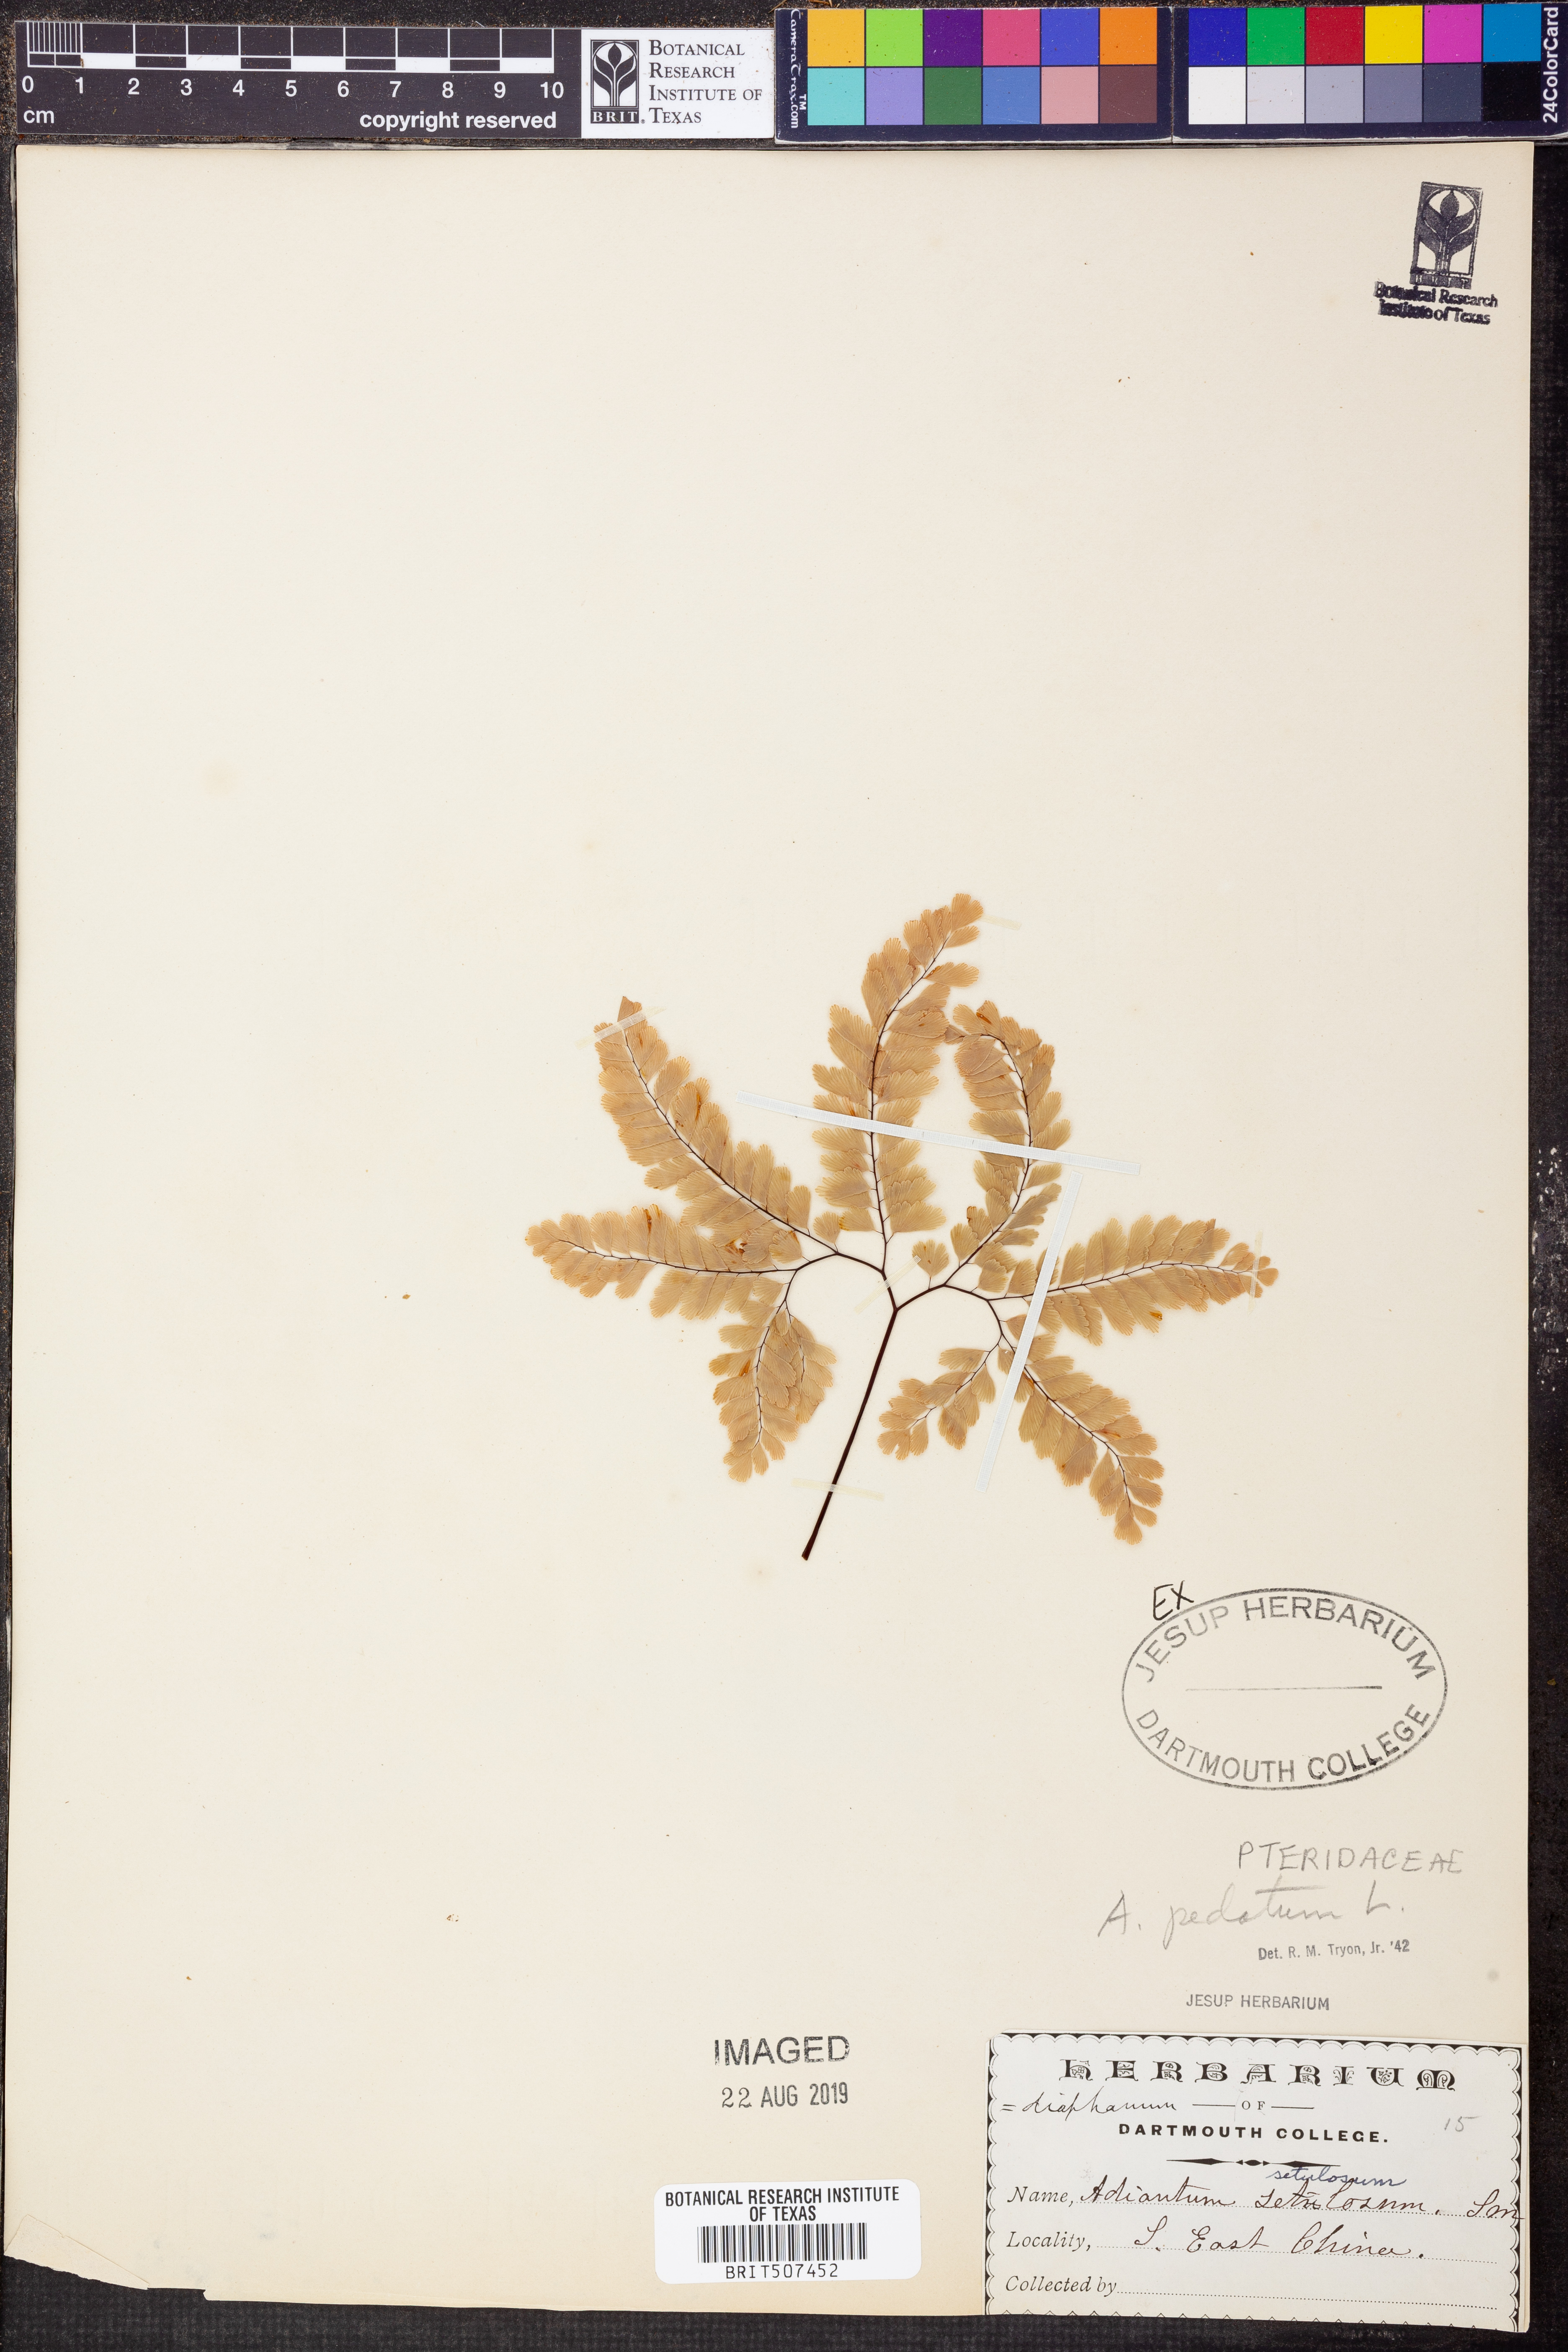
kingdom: Plantae
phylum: Tracheophyta
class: Polypodiopsida
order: Polypodiales
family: Pteridaceae
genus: Adiantum
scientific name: Adiantum pedatum
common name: Five-finger fern
